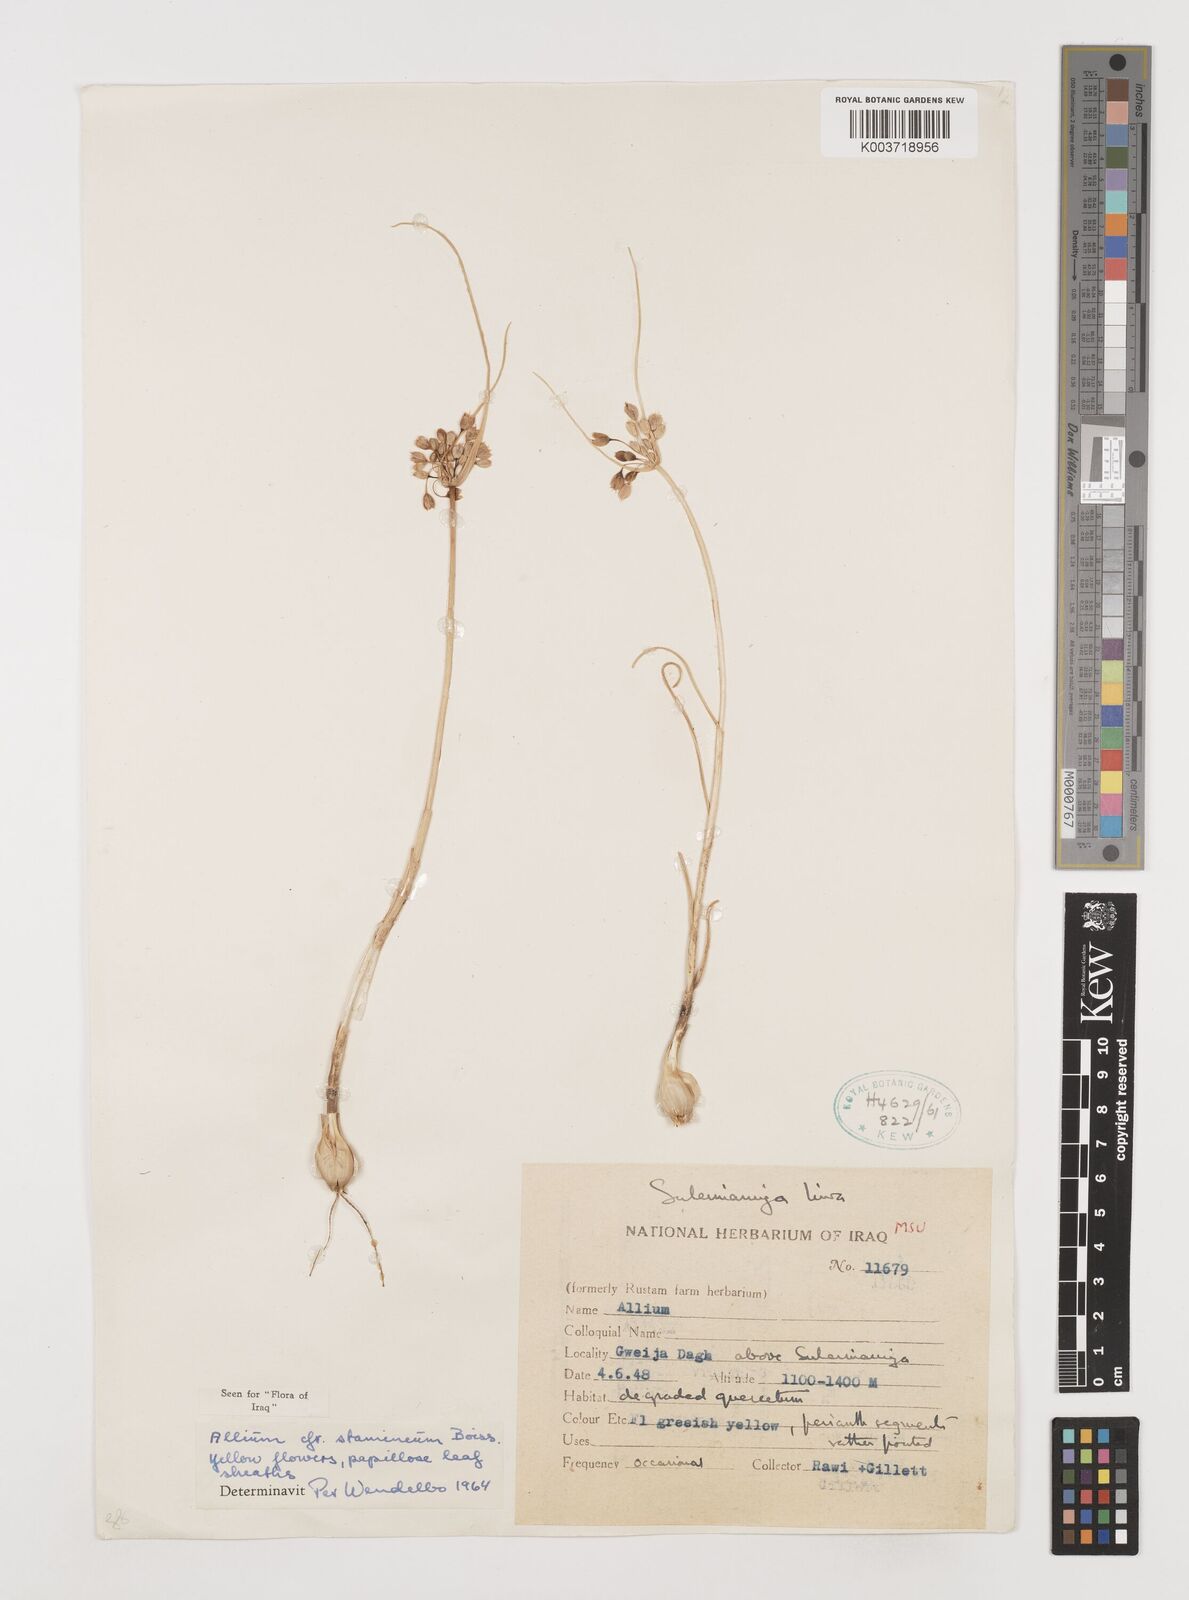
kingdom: Plantae
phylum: Tracheophyta
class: Liliopsida
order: Asparagales
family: Amaryllidaceae
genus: Allium
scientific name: Allium stamineum
